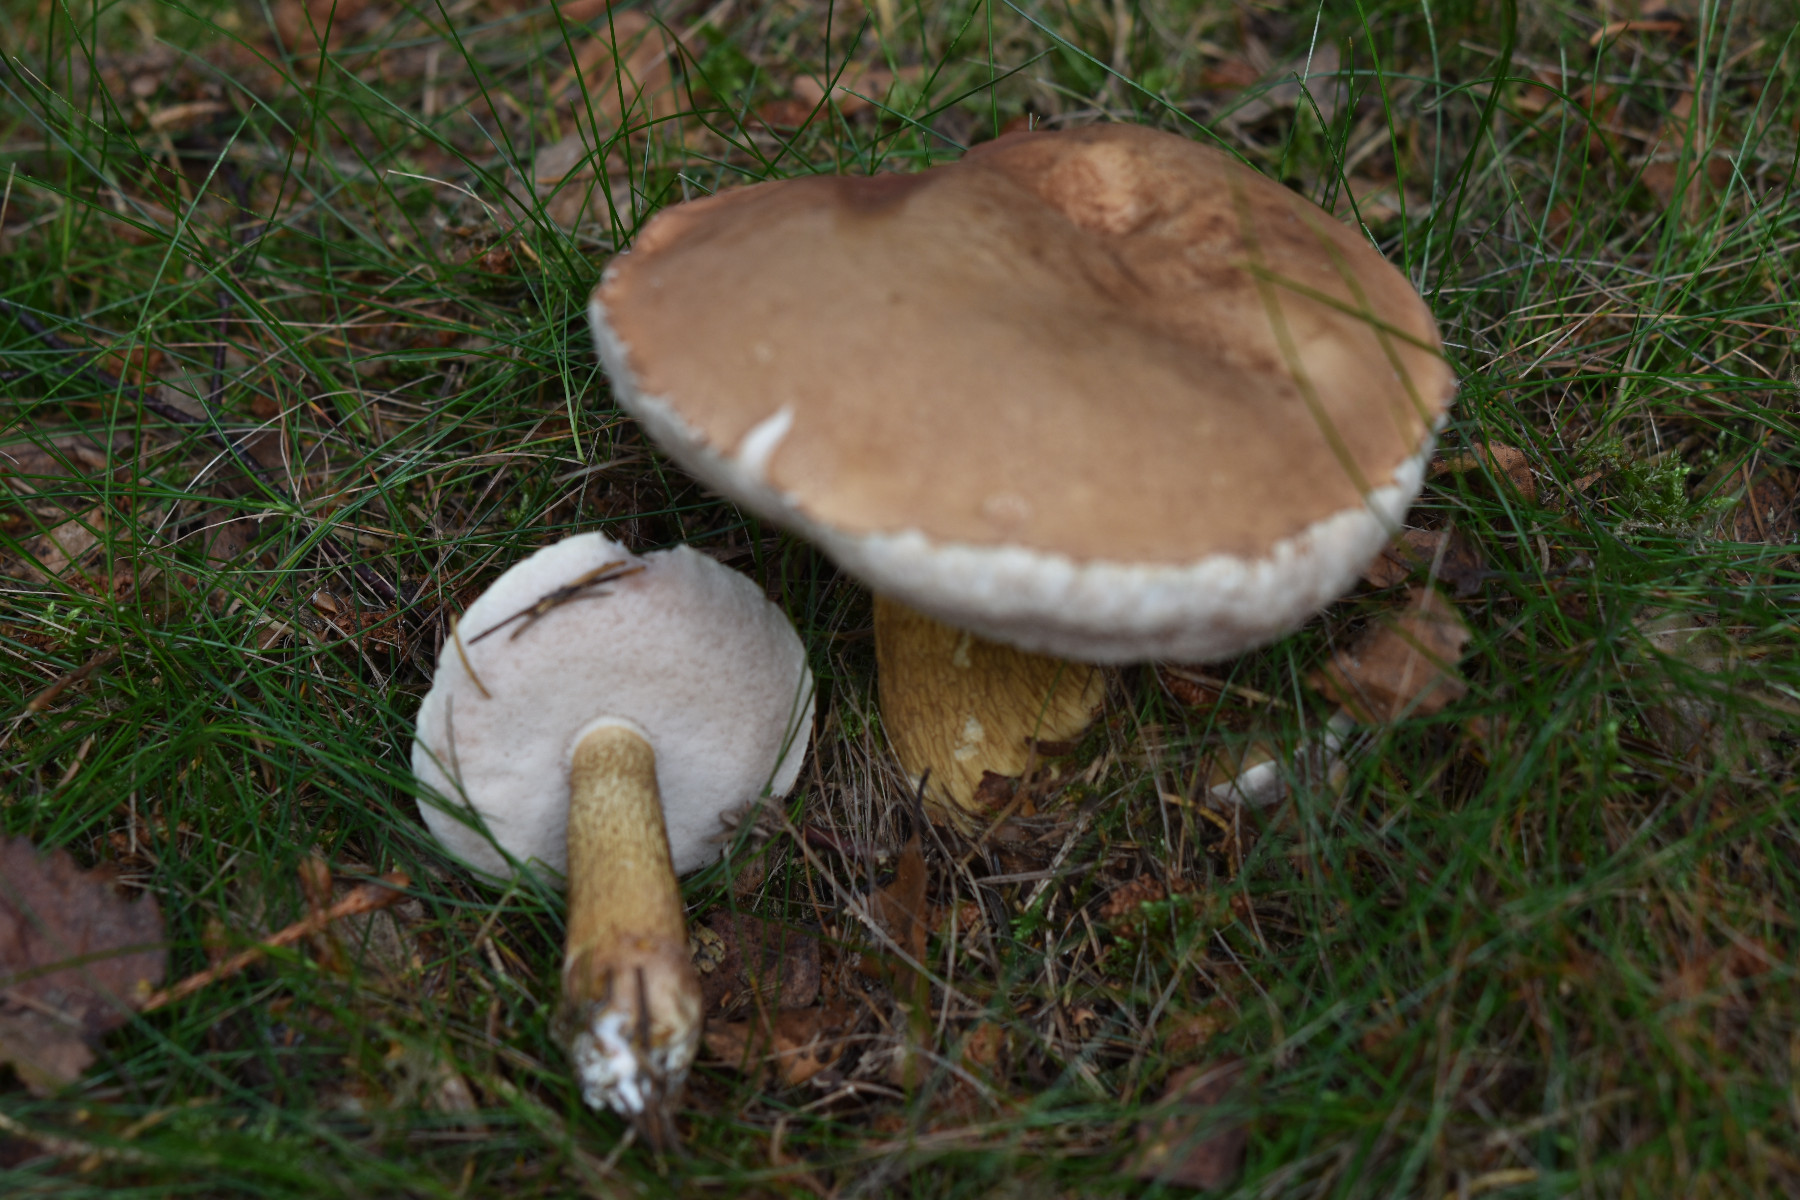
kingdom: Fungi
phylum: Basidiomycota
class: Agaricomycetes
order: Boletales
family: Boletaceae
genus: Tylopilus
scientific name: Tylopilus felleus
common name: galderørhat
